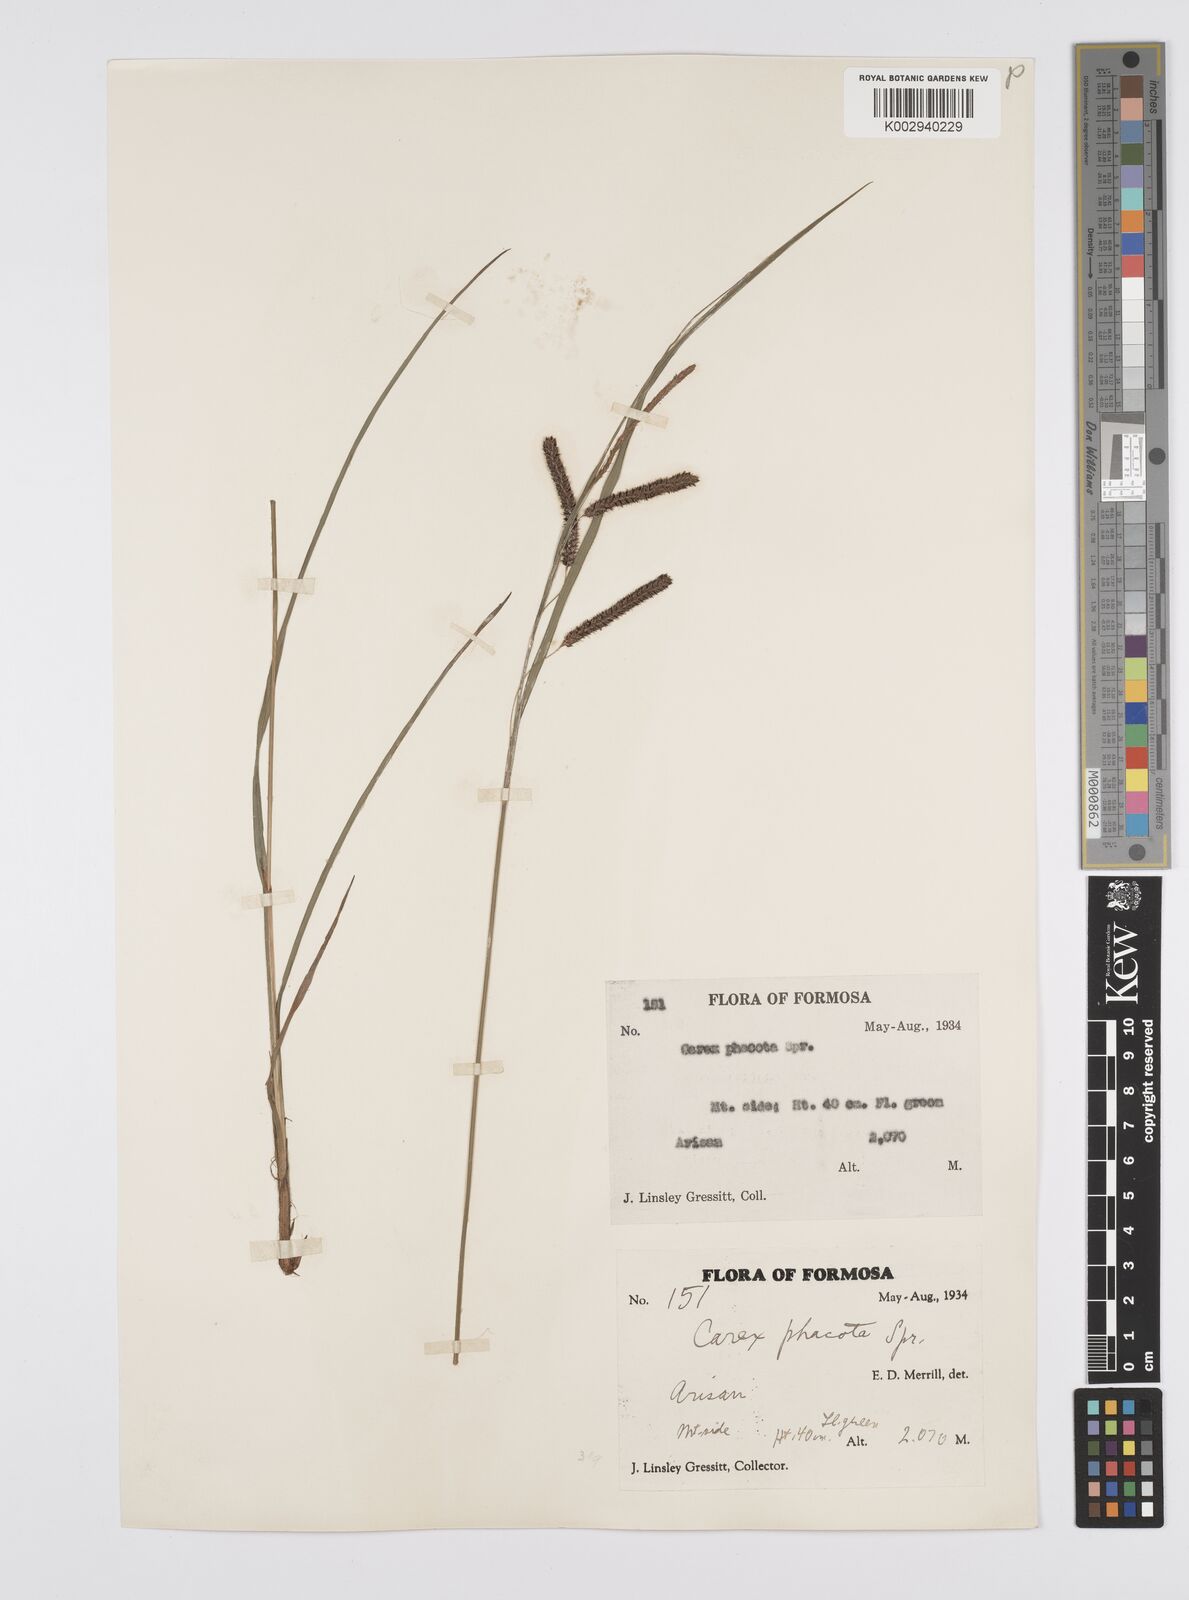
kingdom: Plantae
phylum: Tracheophyta
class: Liliopsida
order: Poales
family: Cyperaceae
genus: Carex
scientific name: Carex phacota
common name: Lakeshore sedge
